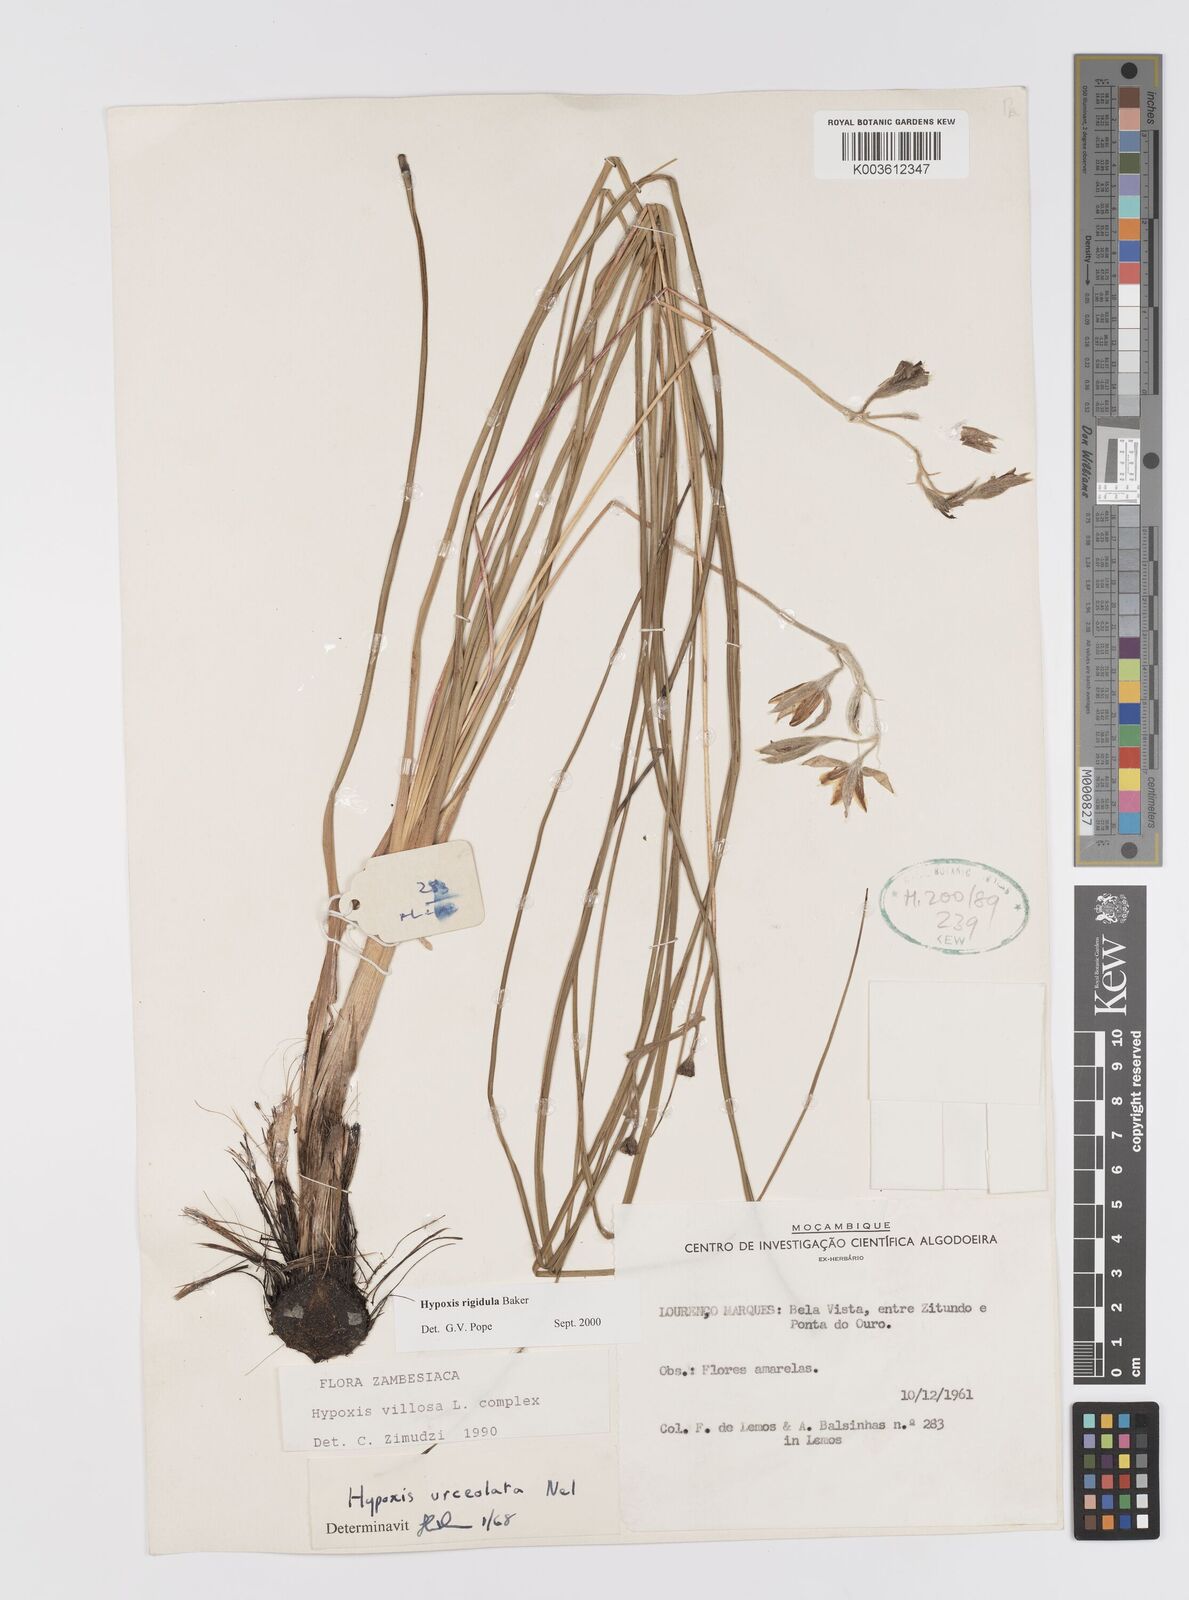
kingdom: Plantae
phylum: Tracheophyta
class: Liliopsida
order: Asparagales
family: Hypoxidaceae
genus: Hypoxis
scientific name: Hypoxis rigidula
